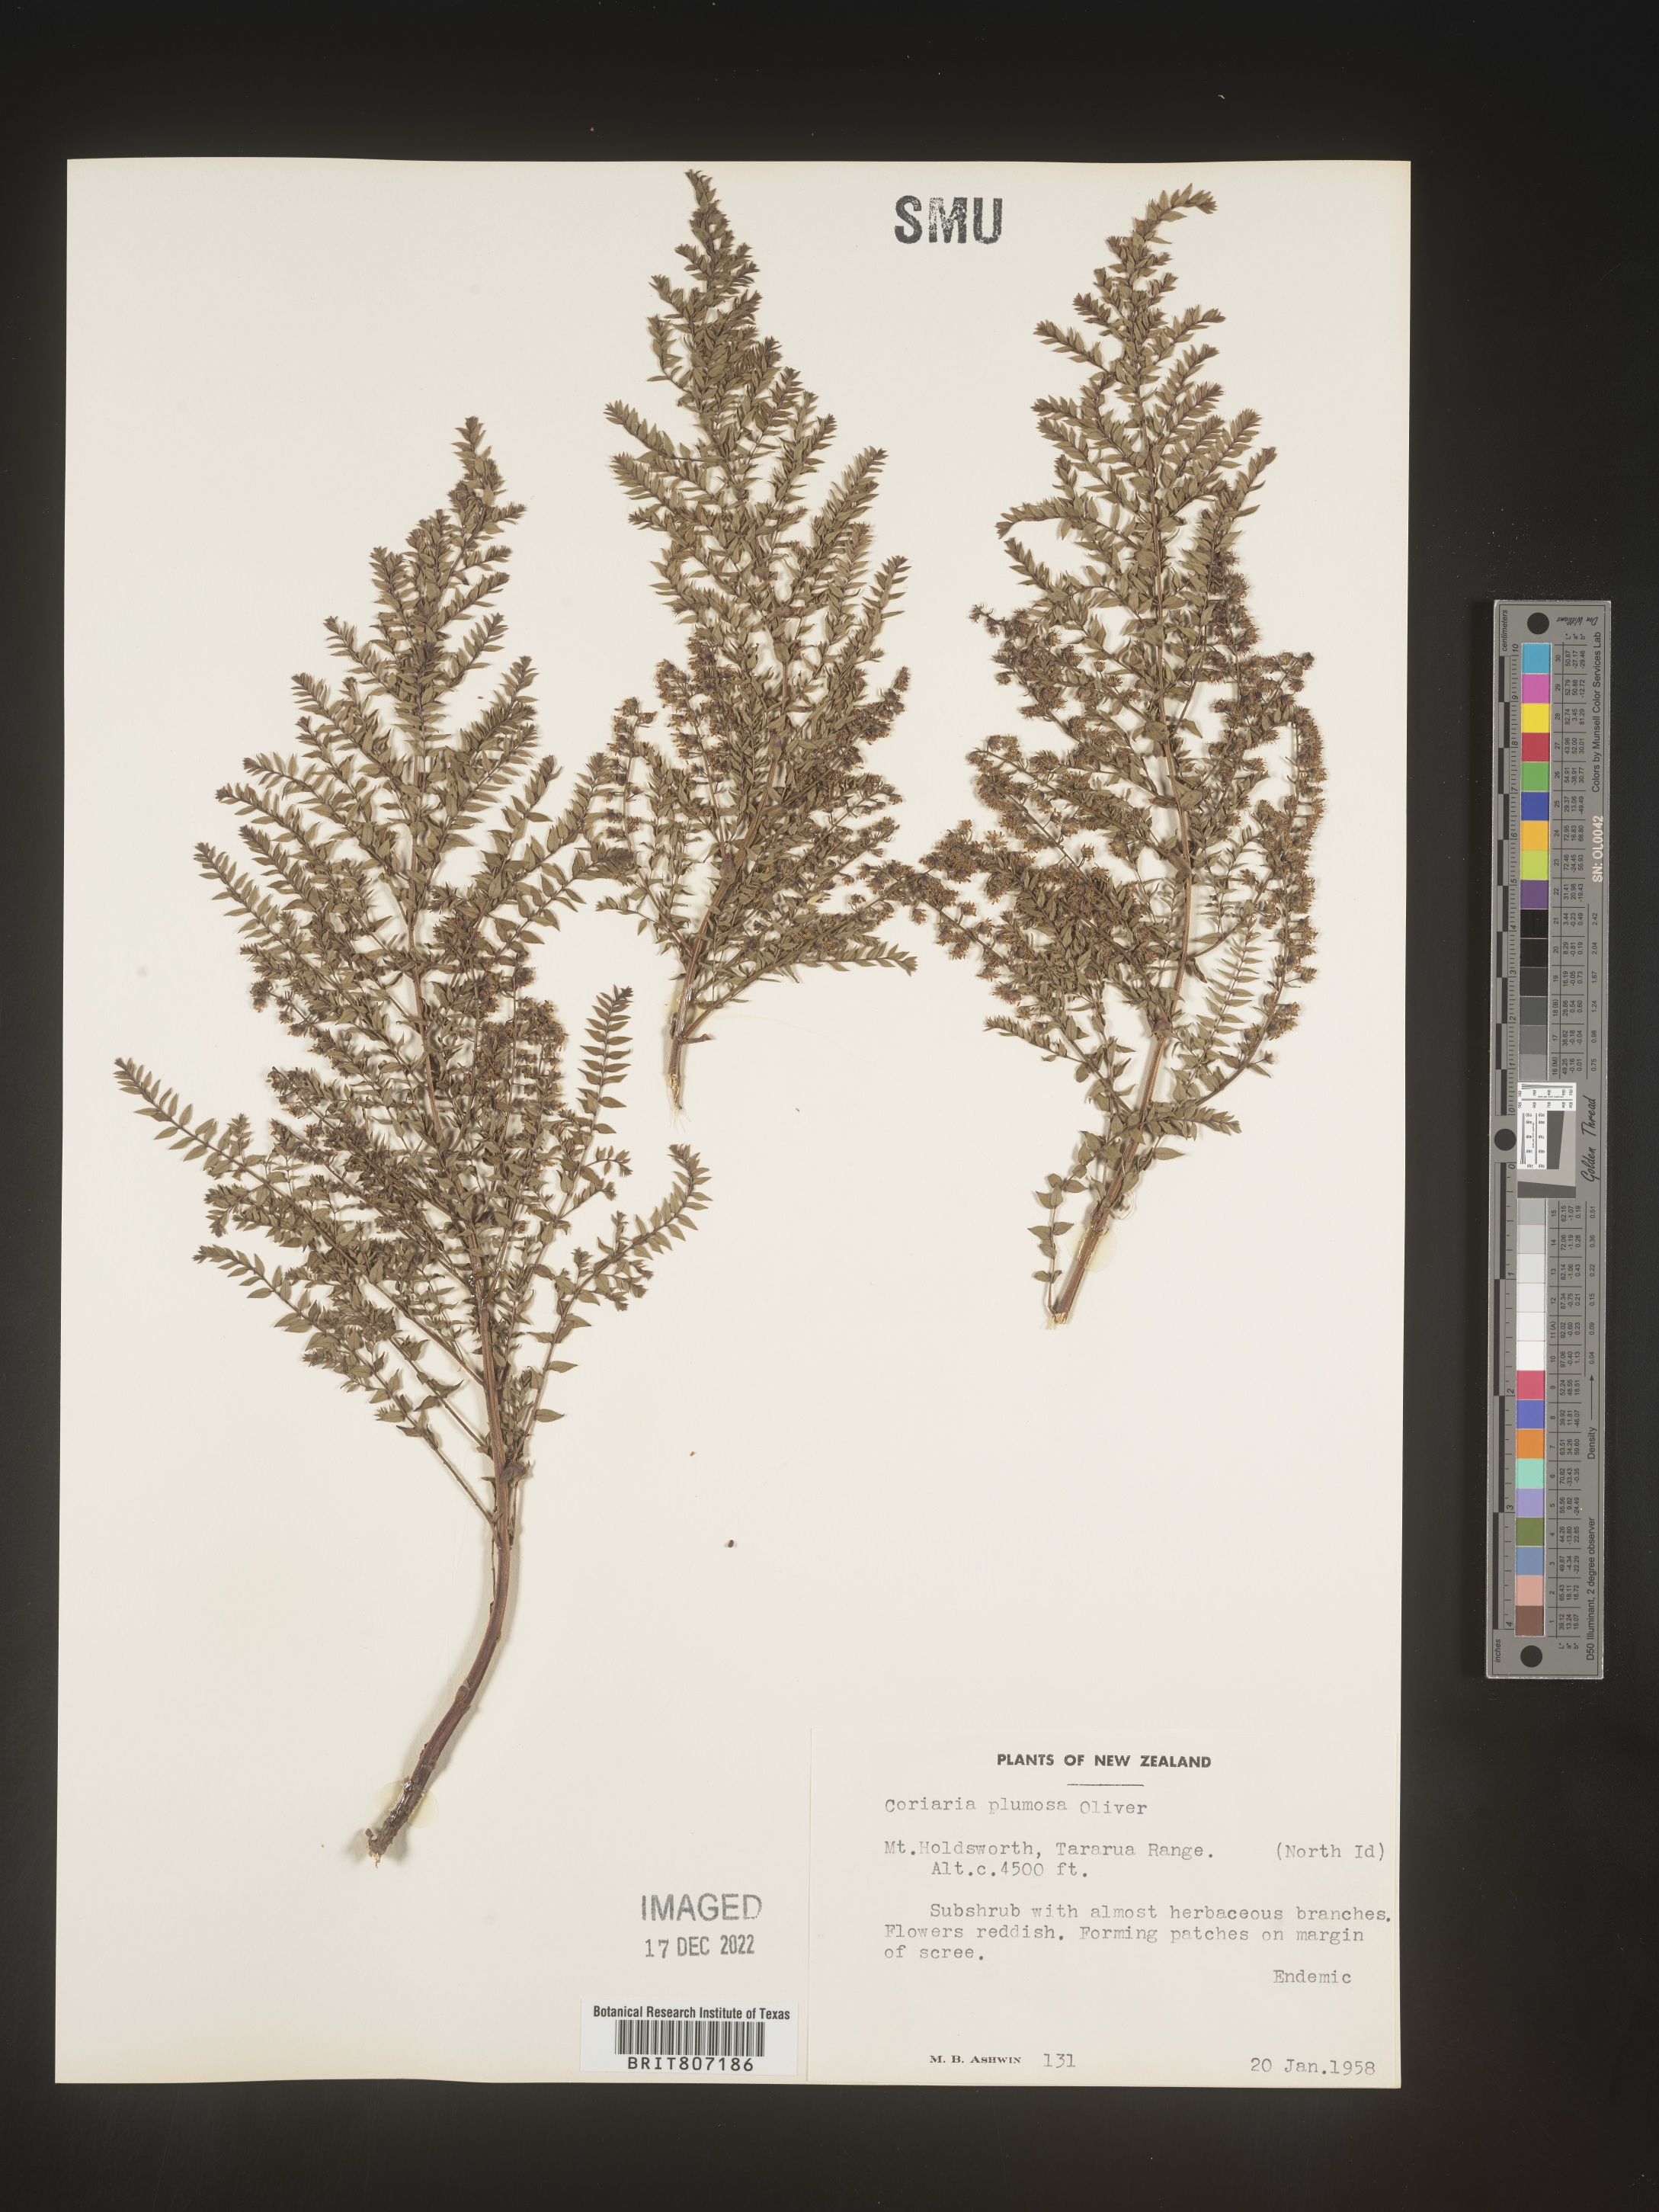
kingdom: Plantae
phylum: Tracheophyta
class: Magnoliopsida
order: Cucurbitales
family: Coriariaceae
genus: Coriaria
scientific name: Coriaria
